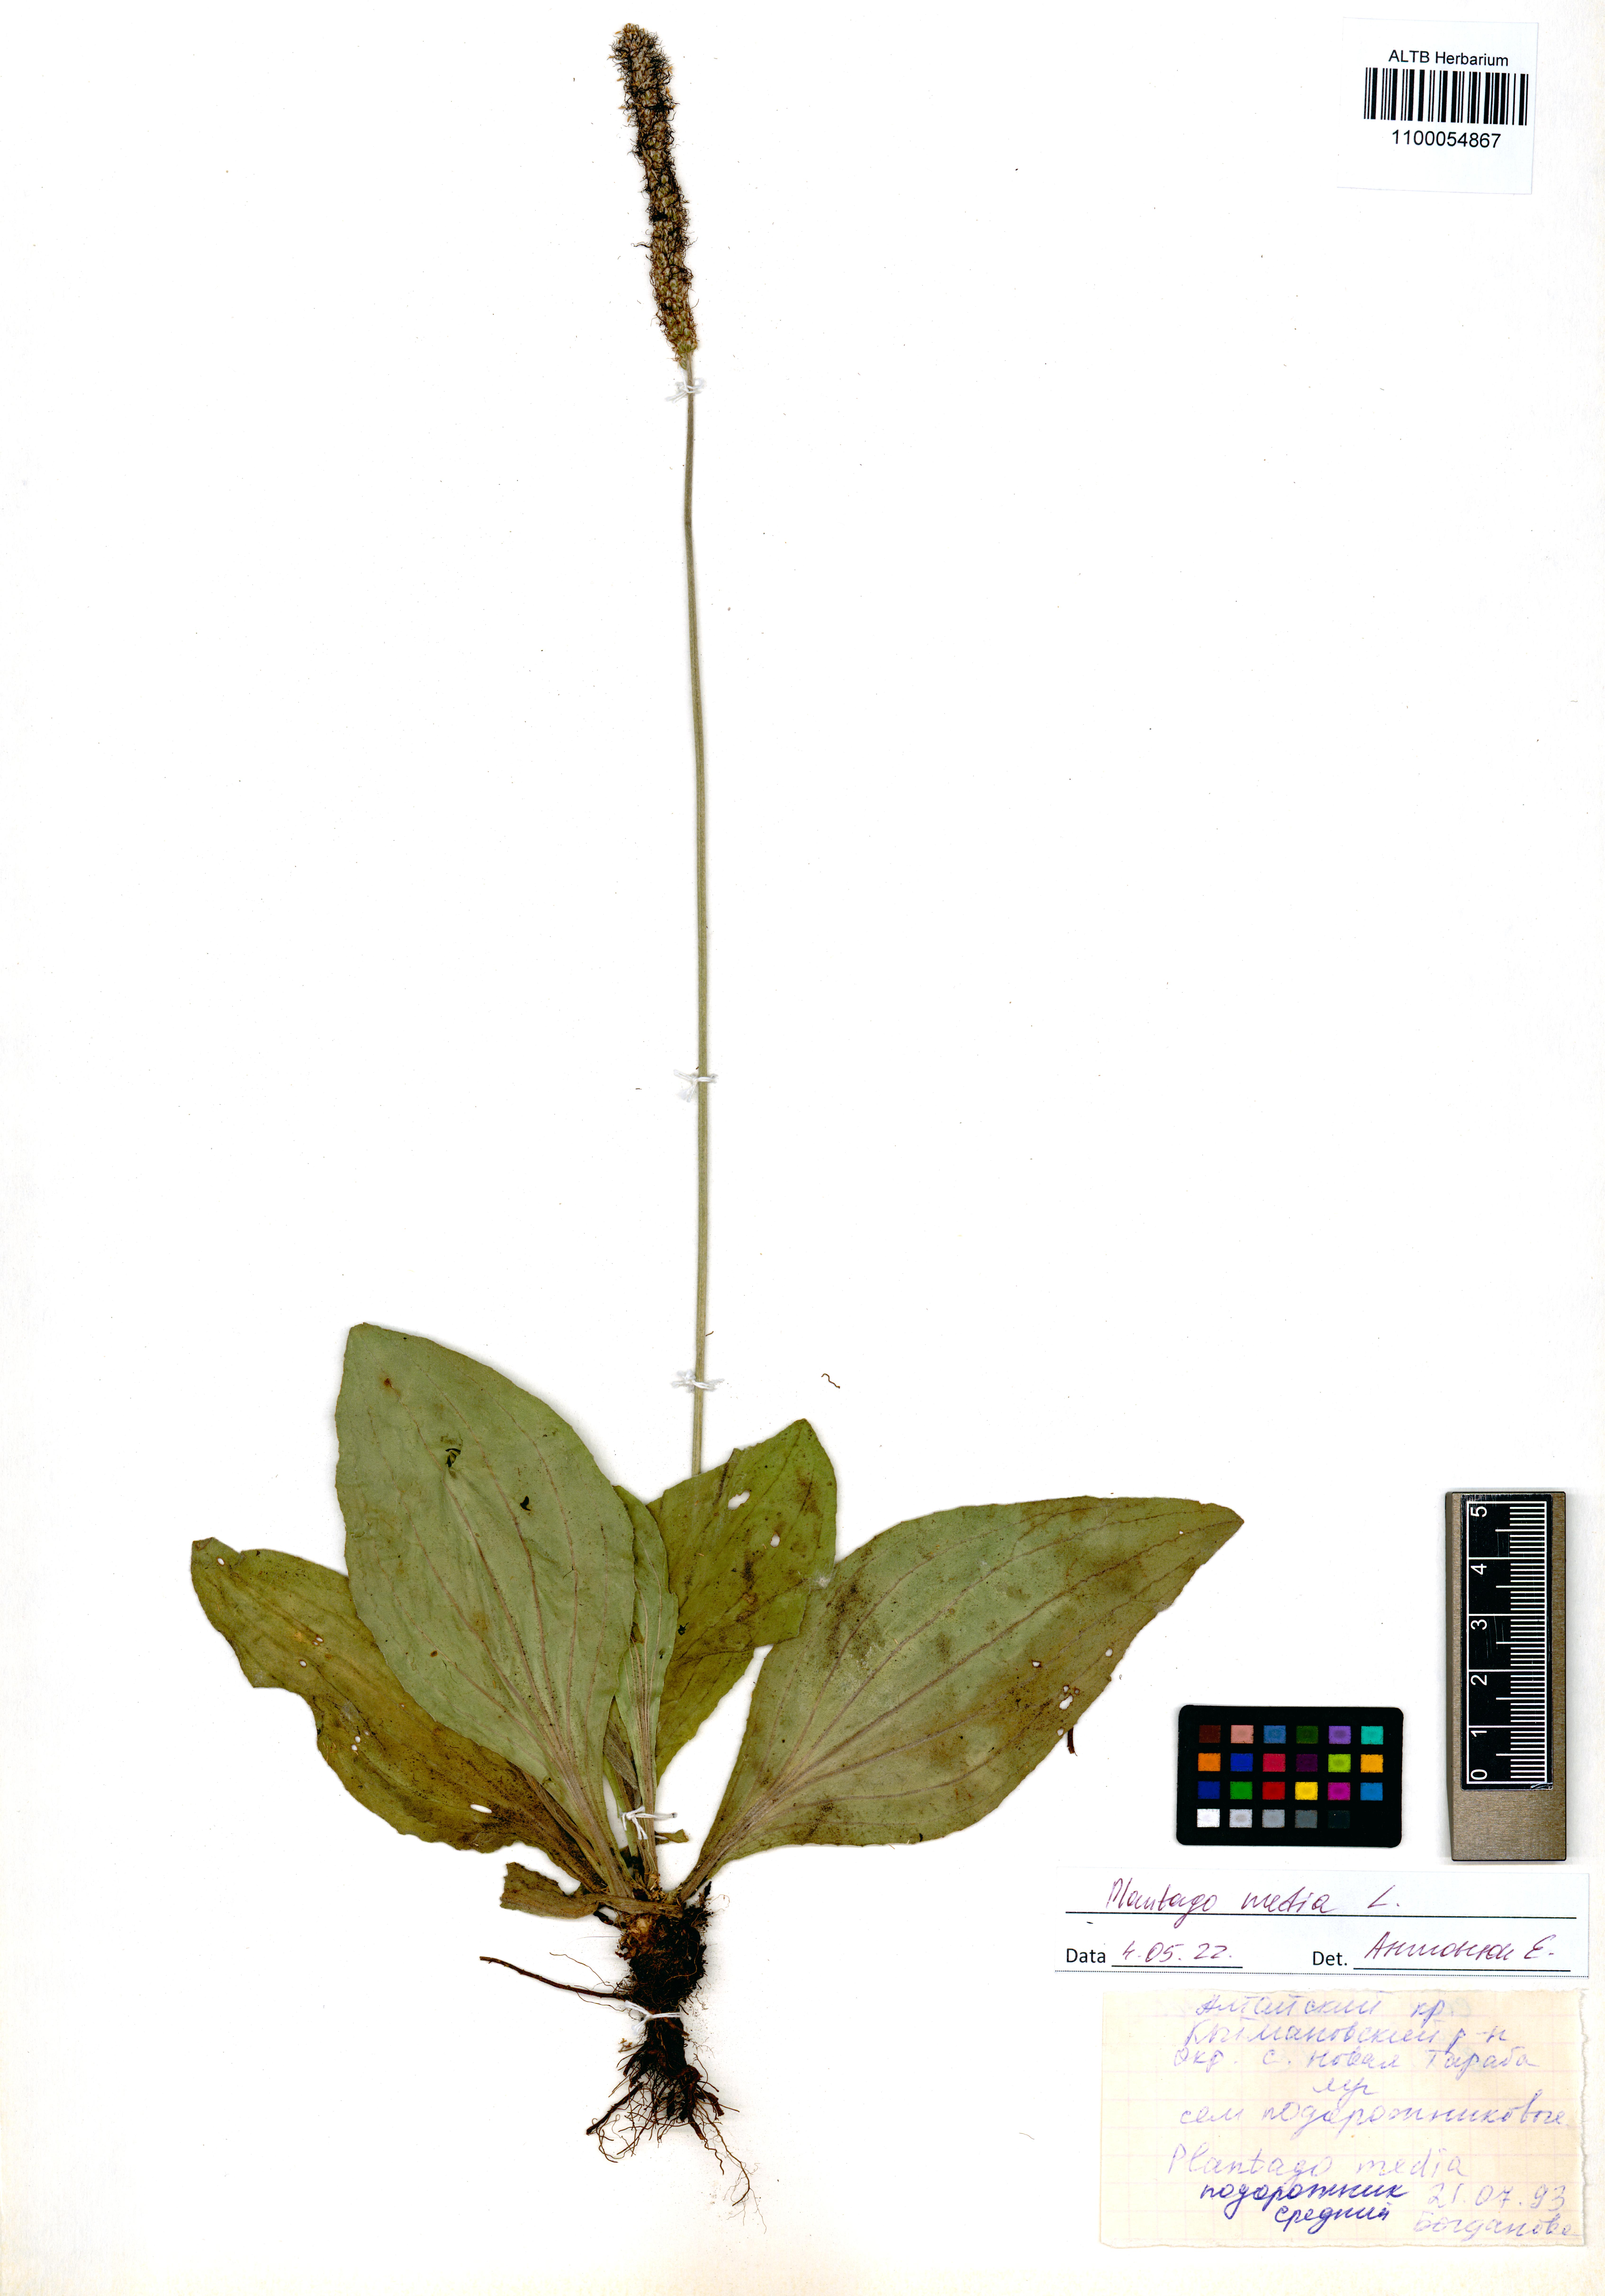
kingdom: Plantae
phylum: Tracheophyta
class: Magnoliopsida
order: Lamiales
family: Plantaginaceae
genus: Plantago
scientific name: Plantago media
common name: Hoary plantain
